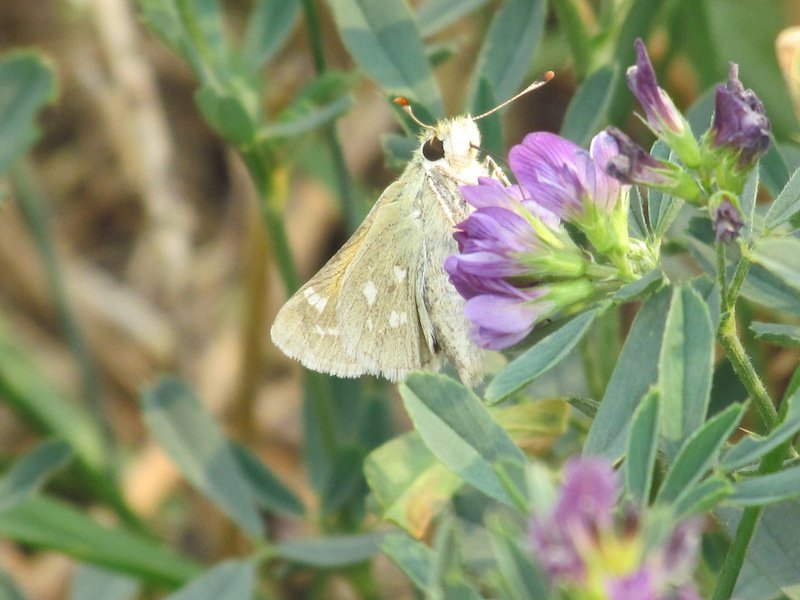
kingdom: Animalia
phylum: Arthropoda
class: Insecta
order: Lepidoptera
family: Hesperiidae
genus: Hesperia
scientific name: Hesperia comma
